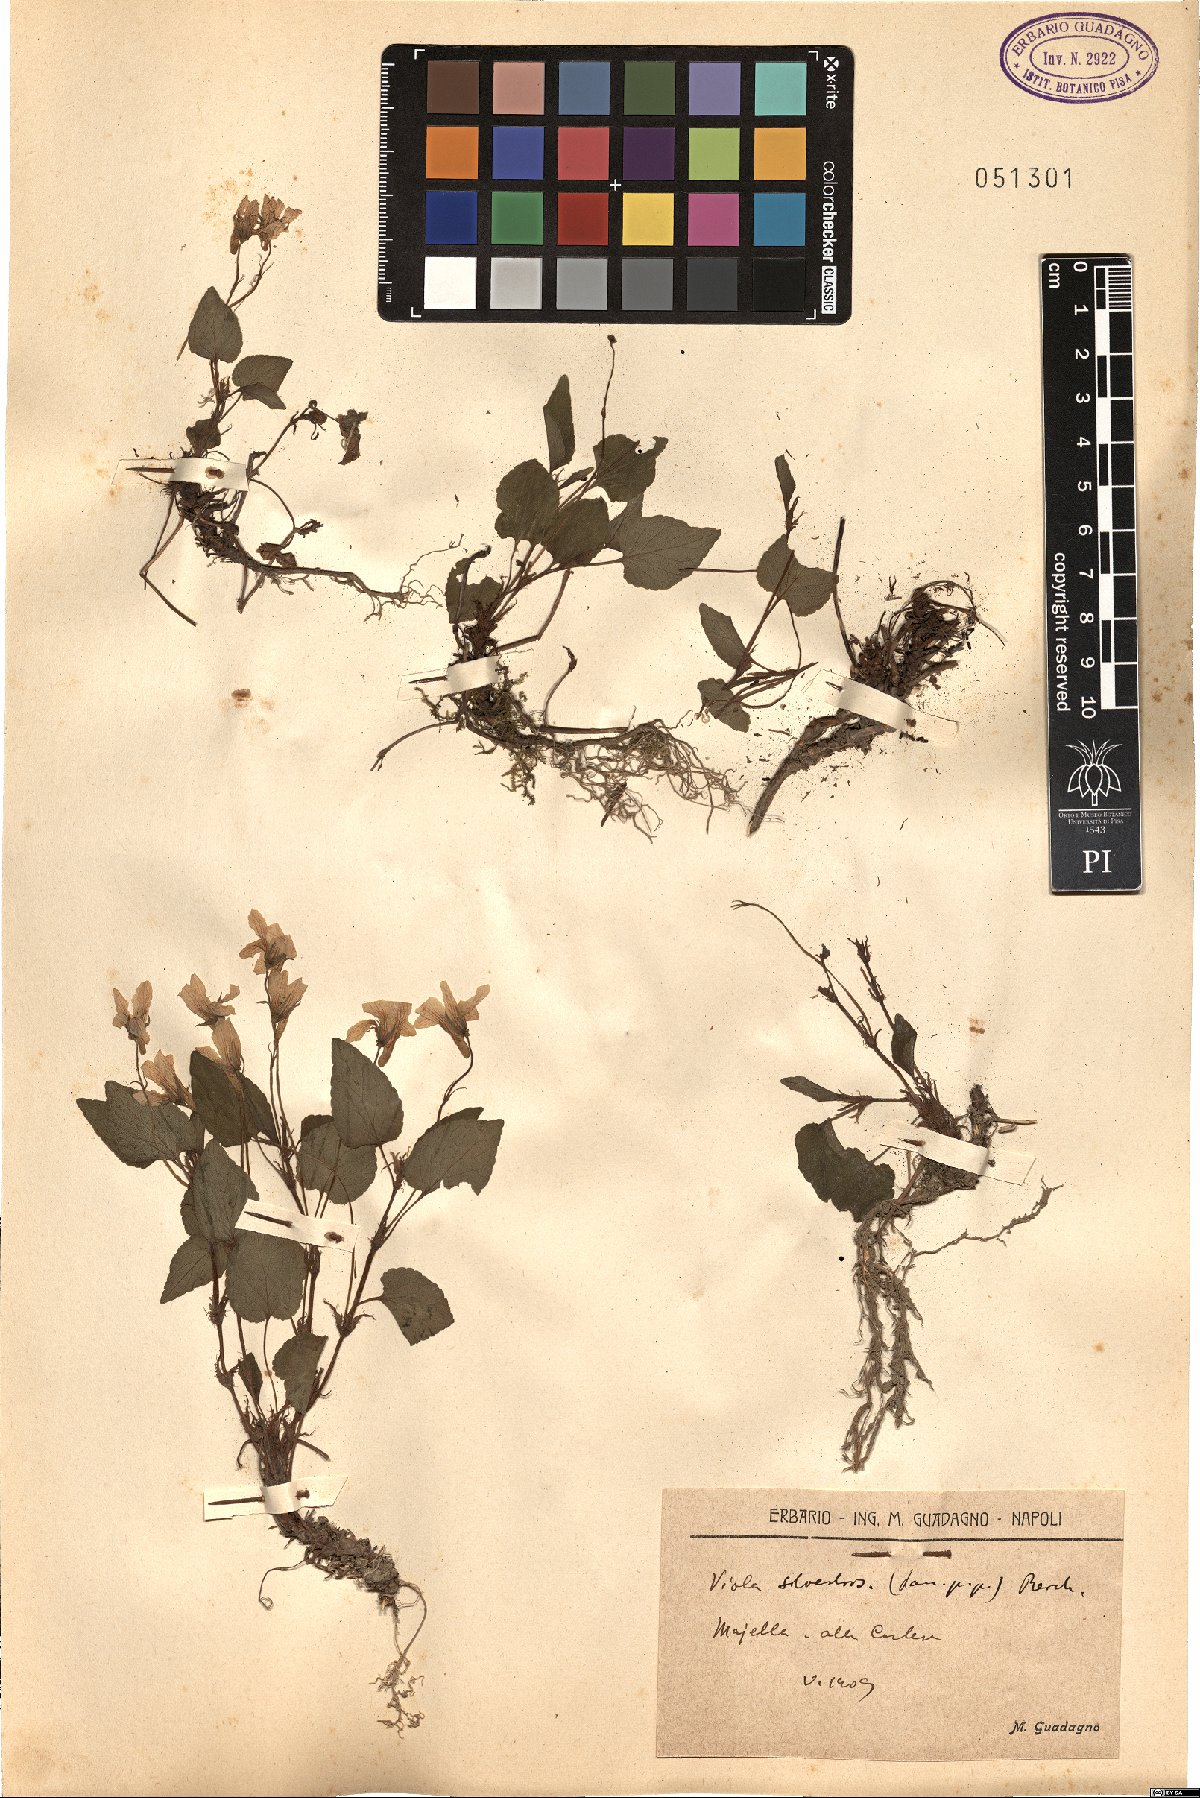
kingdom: Plantae
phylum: Tracheophyta
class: Magnoliopsida
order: Malpighiales
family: Violaceae
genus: Viola
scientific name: Viola canina
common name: Heath dog-violet
